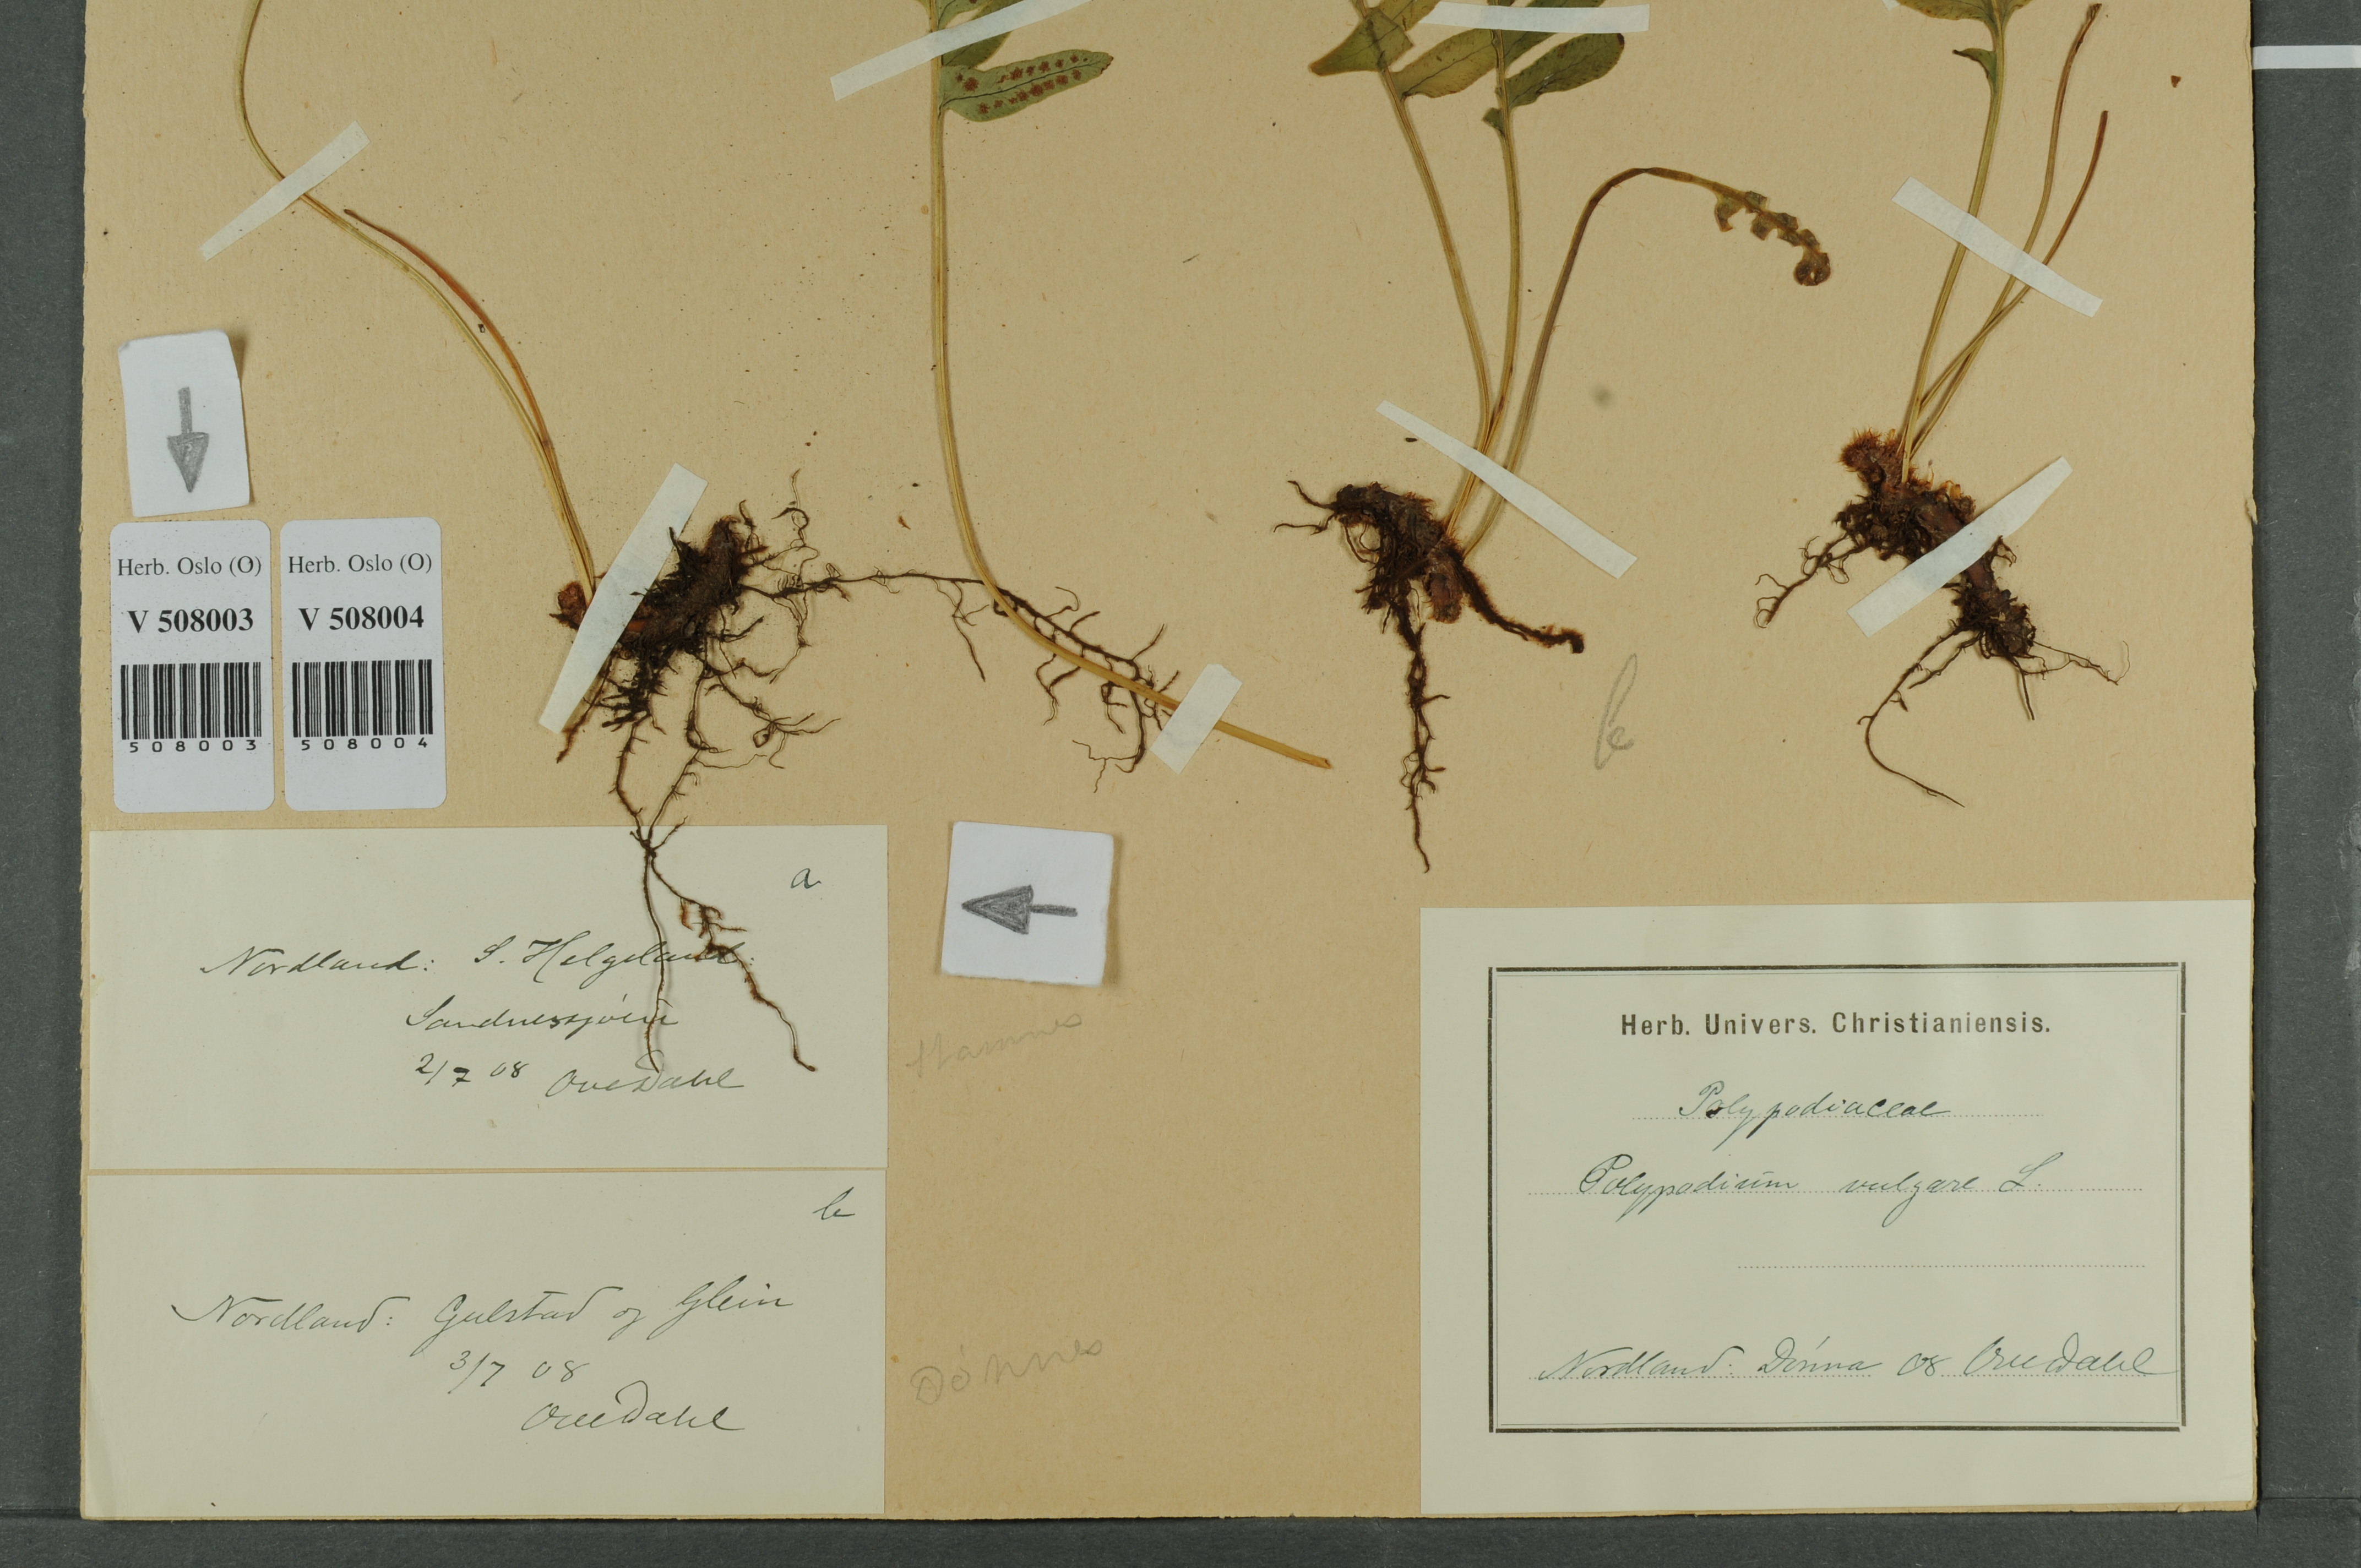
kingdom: Plantae
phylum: Tracheophyta
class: Polypodiopsida
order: Polypodiales
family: Polypodiaceae
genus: Polypodium
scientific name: Polypodium vulgare
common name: Common polypody
